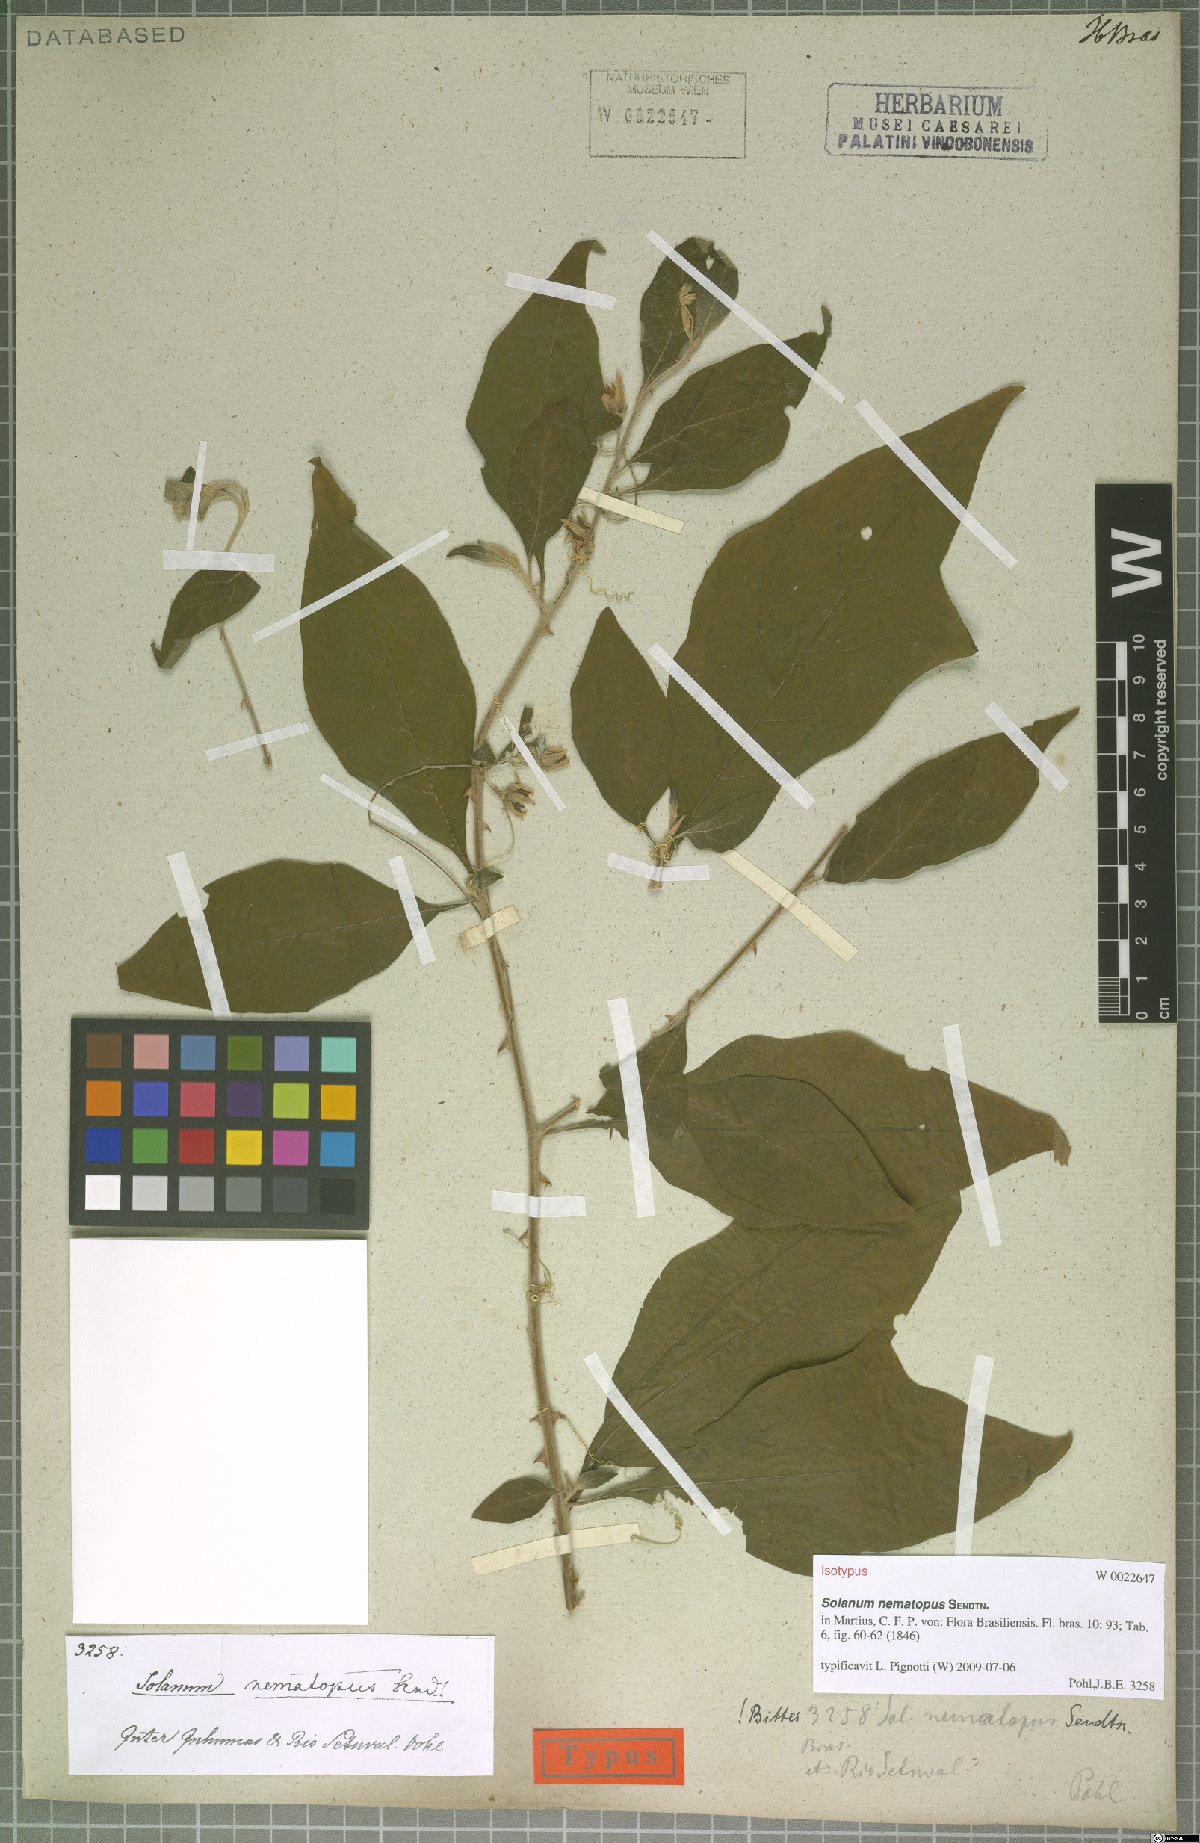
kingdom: Plantae
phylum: Tracheophyta
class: Magnoliopsida
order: Solanales
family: Solanaceae
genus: Solanum
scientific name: Solanum nematopus
